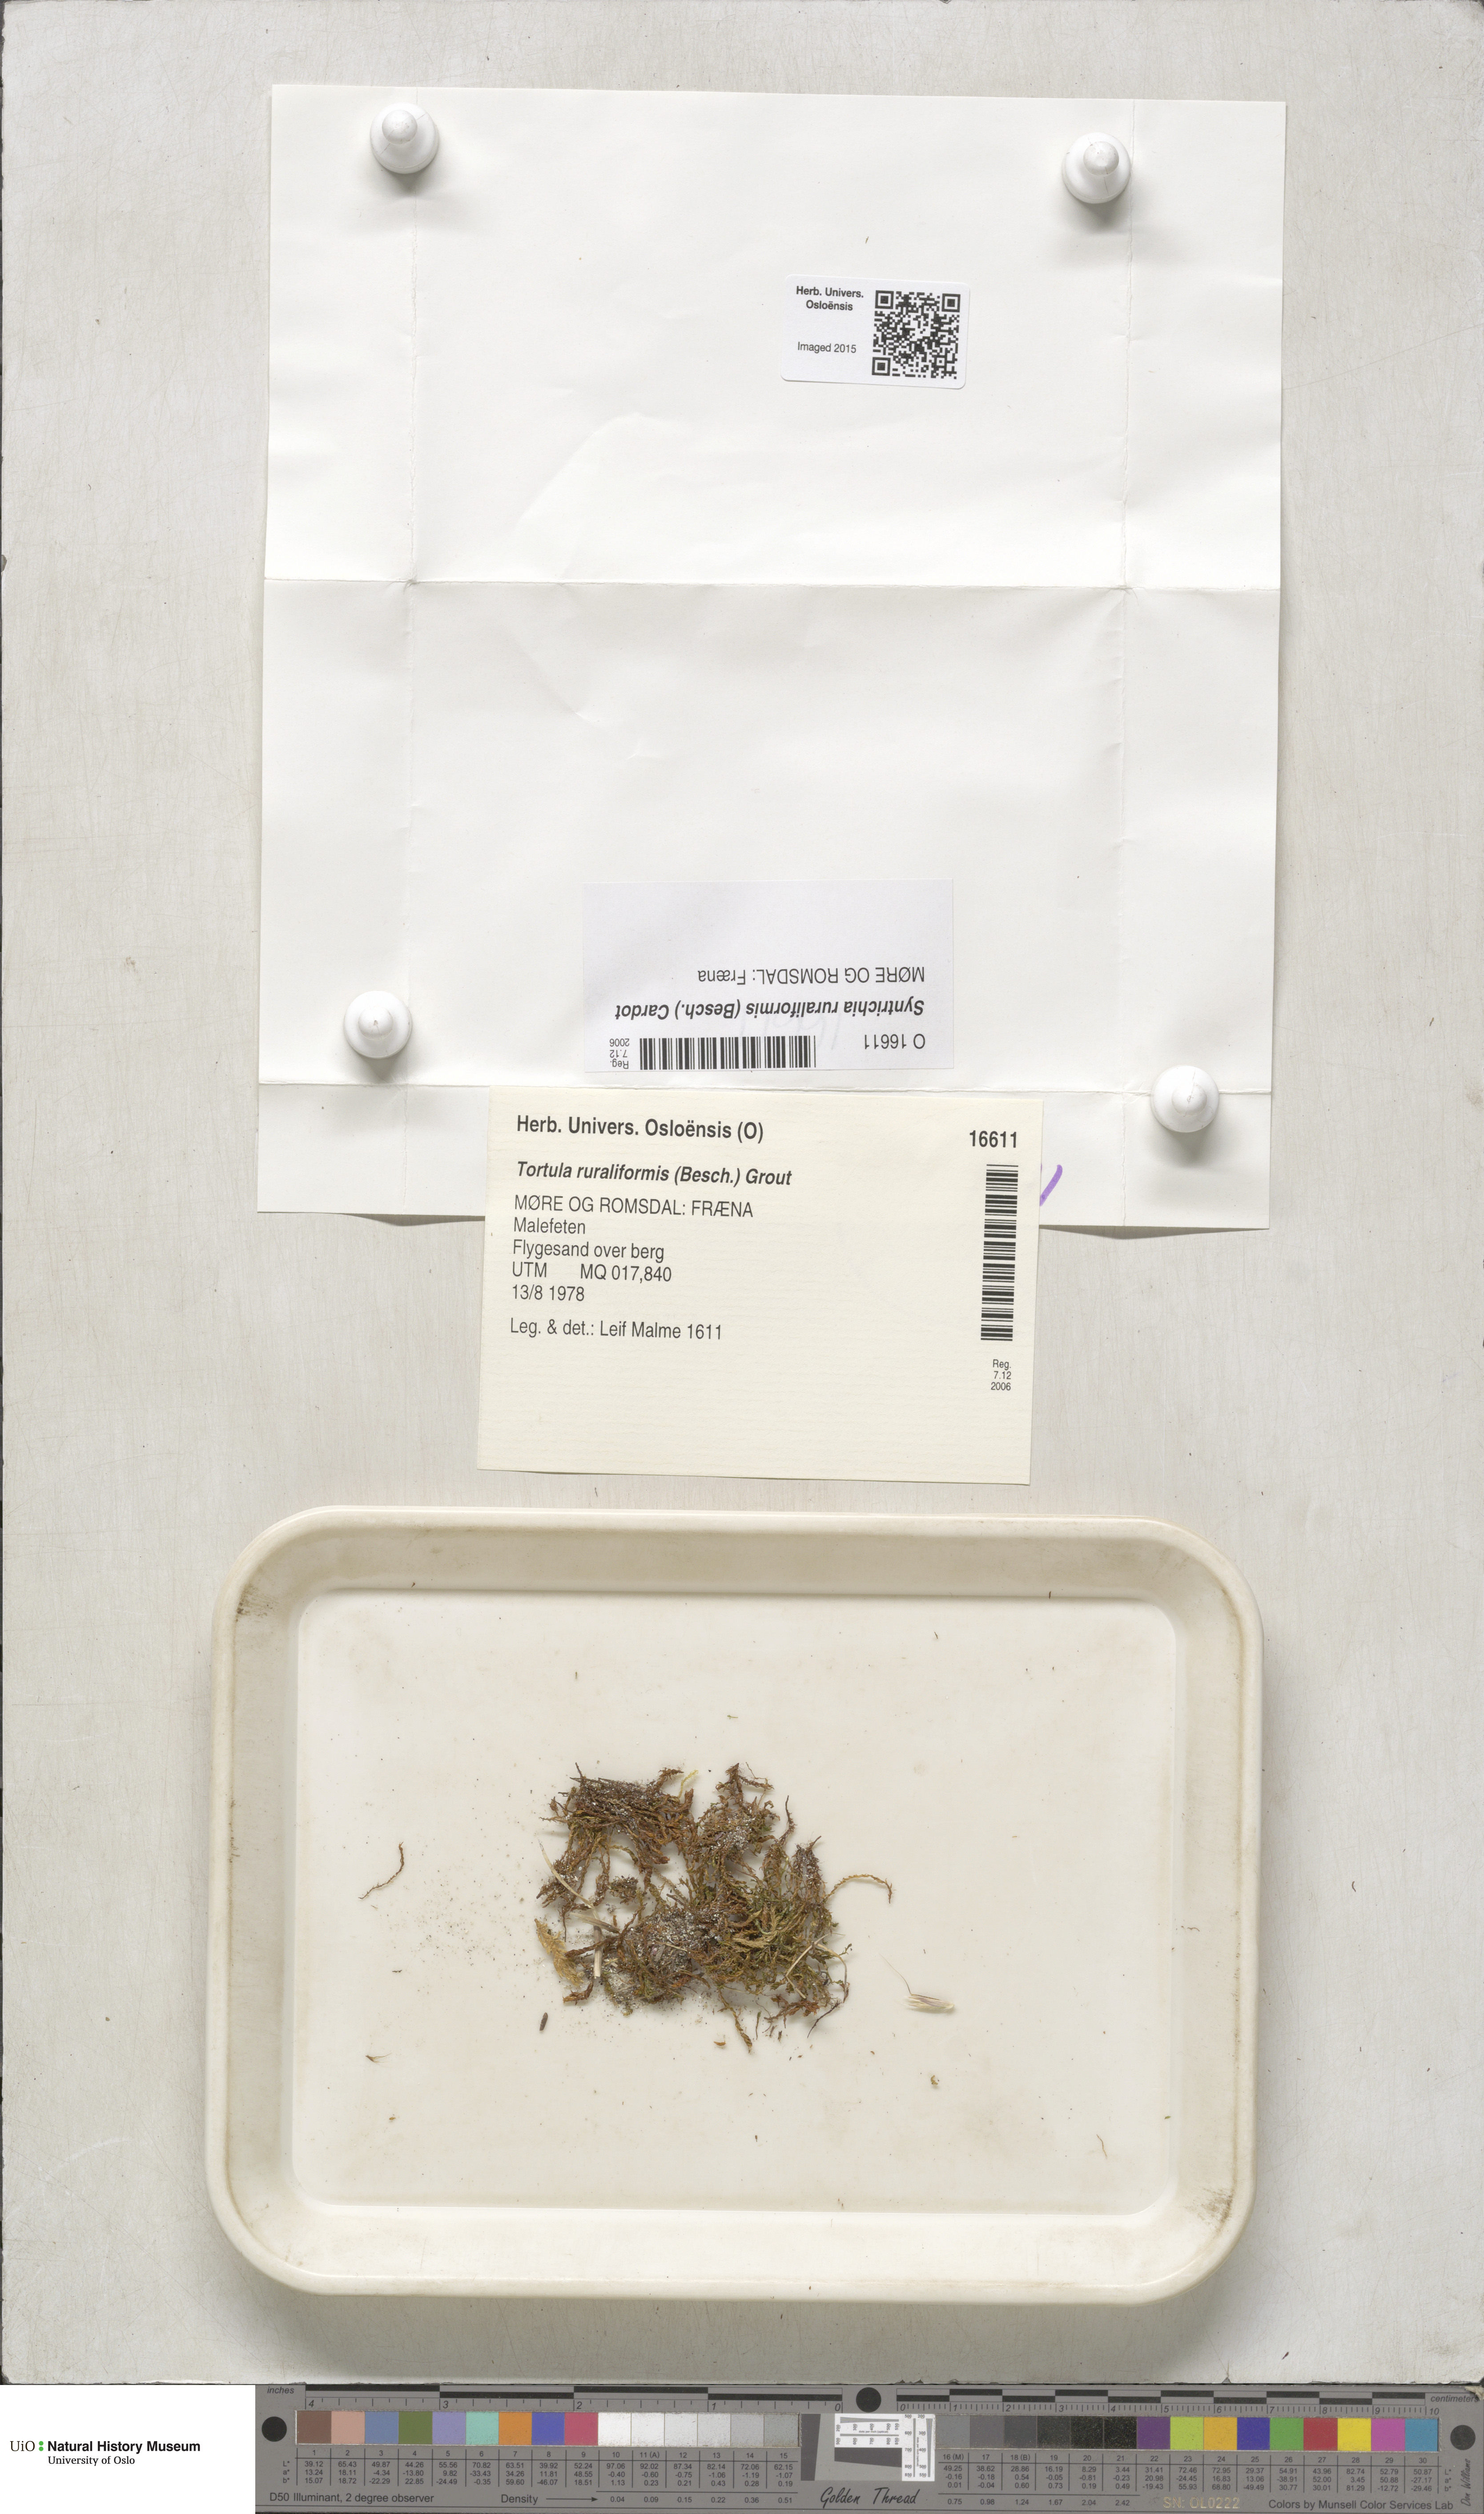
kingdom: Plantae
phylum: Bryophyta
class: Bryopsida
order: Pottiales
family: Pottiaceae
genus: Syntrichia
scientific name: Syntrichia ruralis
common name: Sidewalk screw moss
